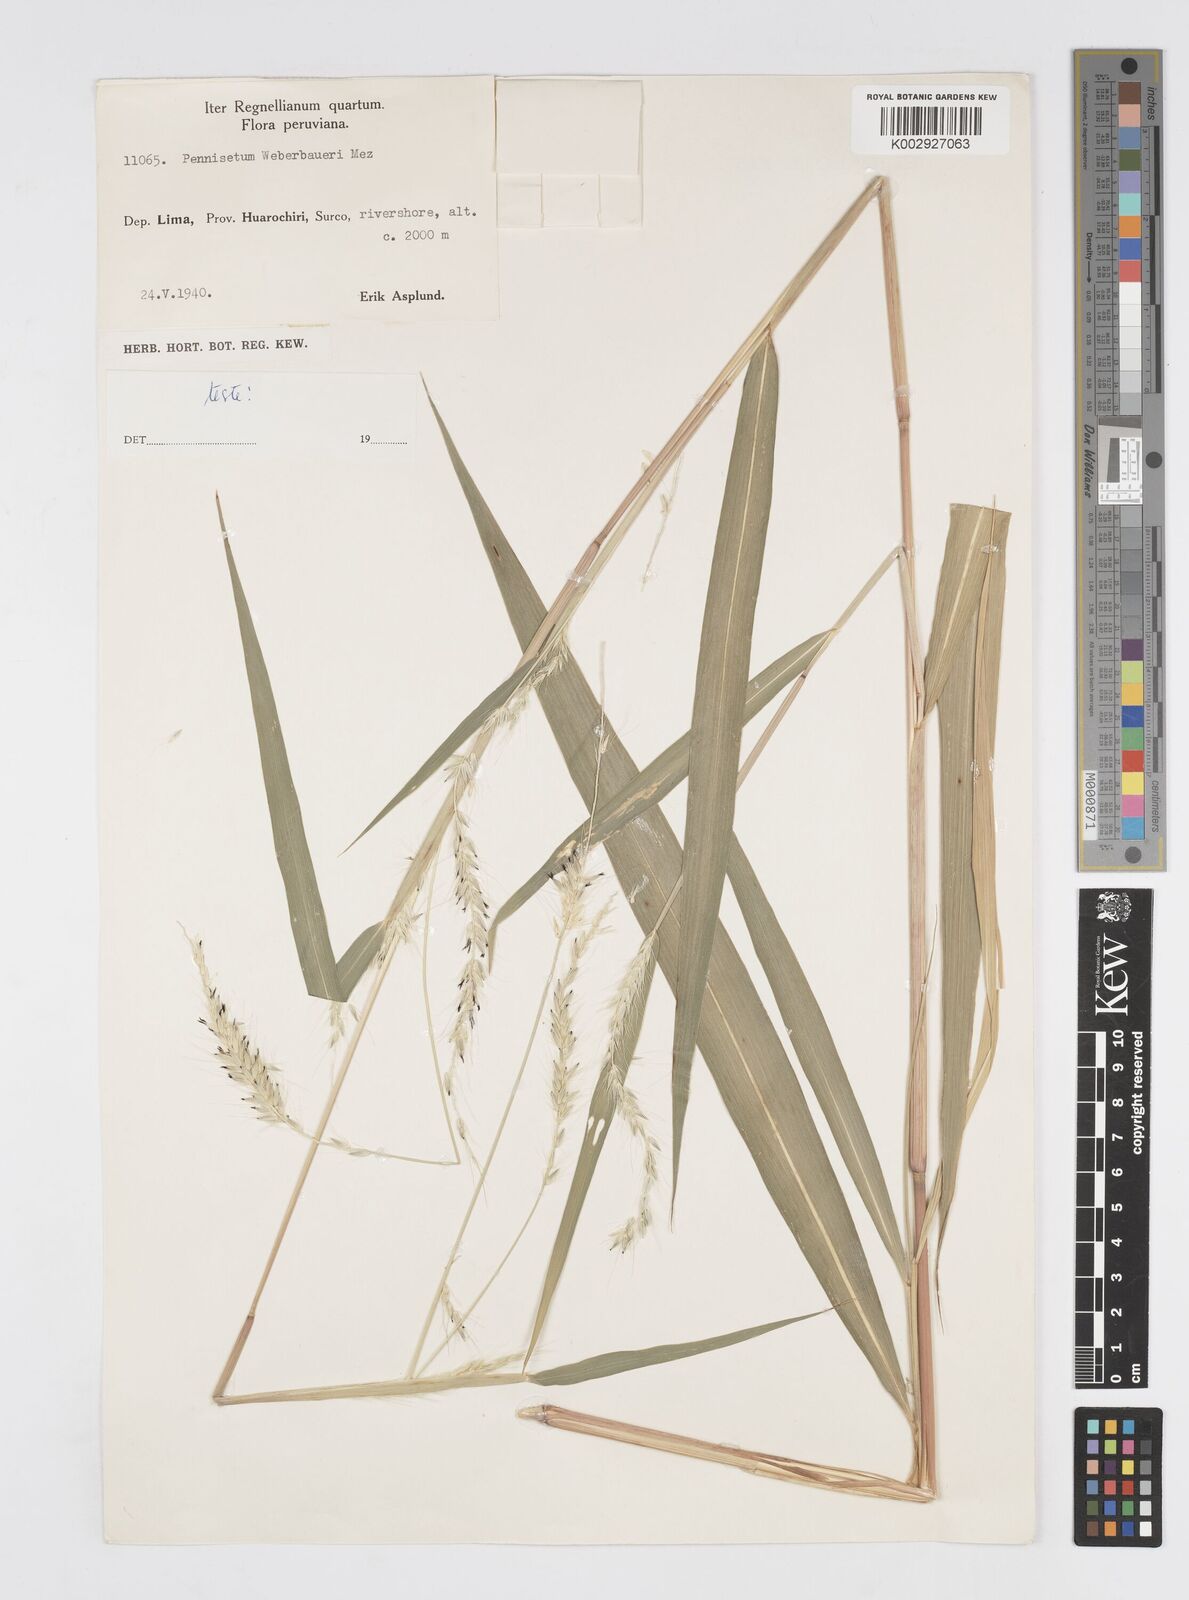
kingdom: Plantae
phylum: Tracheophyta
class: Liliopsida
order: Poales
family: Poaceae
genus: Cenchrus
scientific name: Cenchrus weberbaueri
